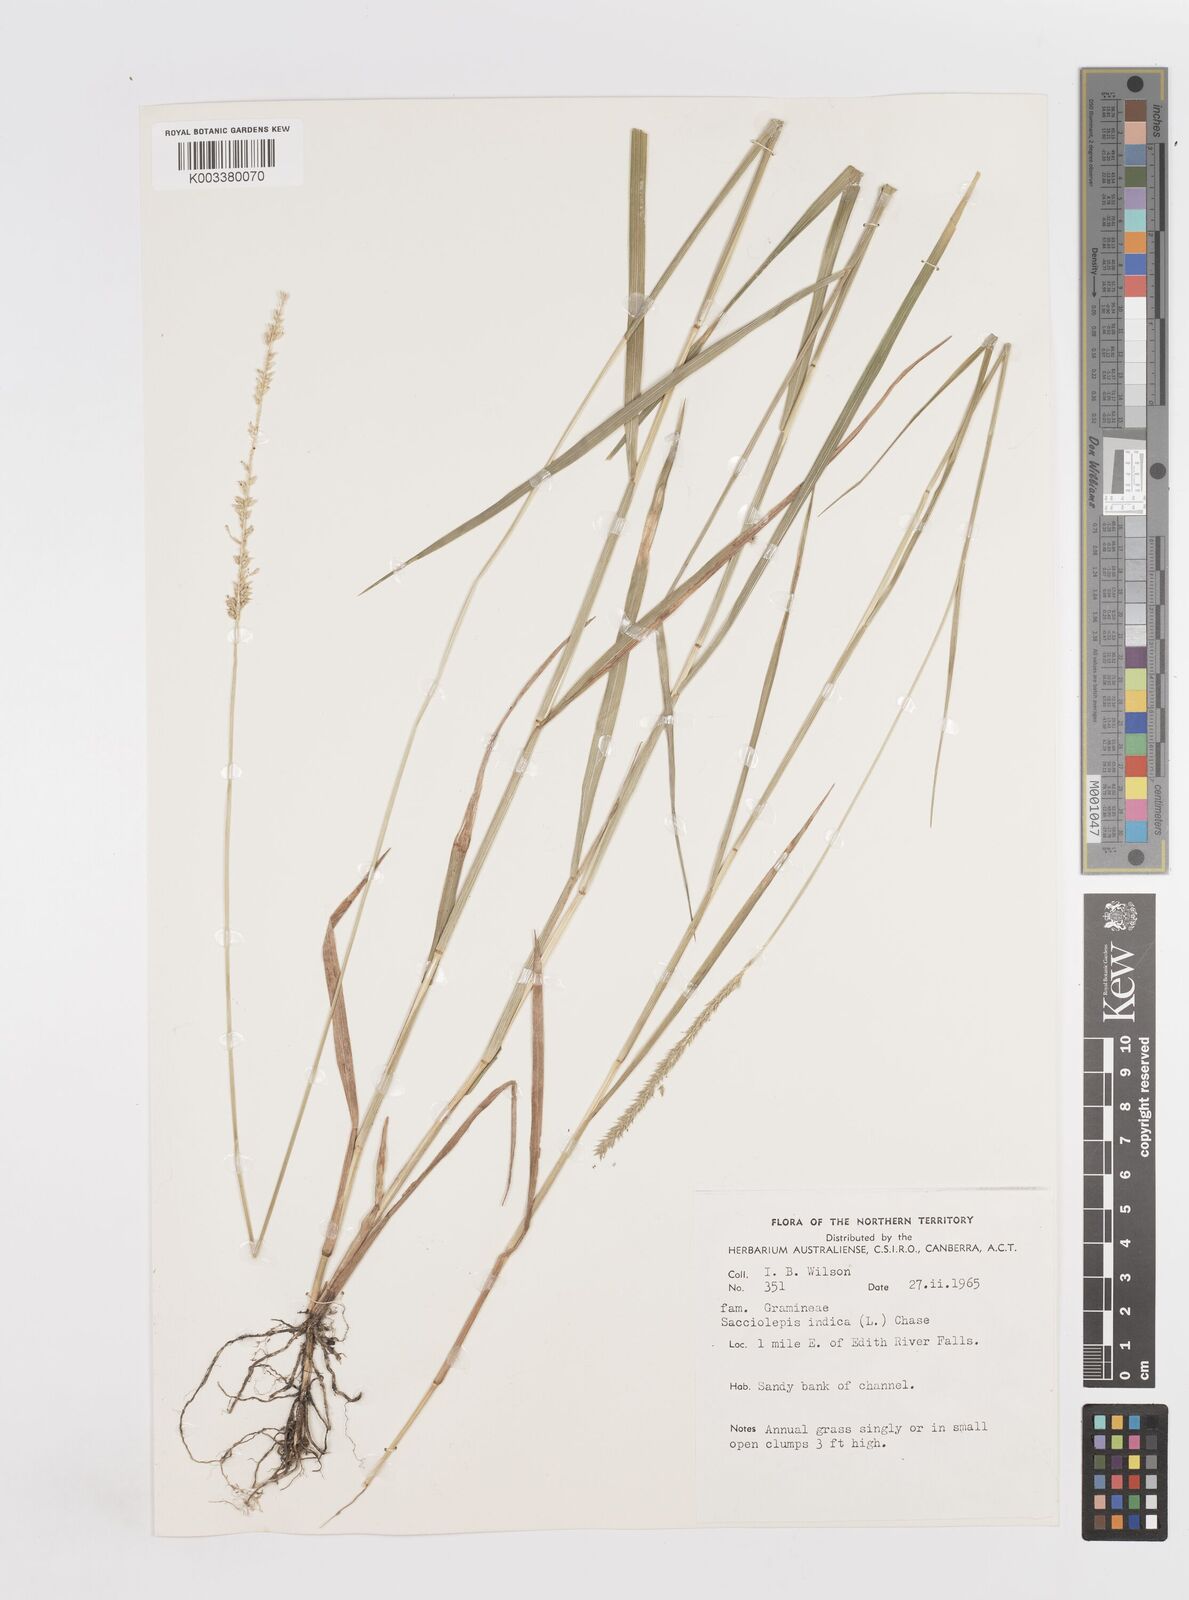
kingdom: Plantae
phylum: Tracheophyta
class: Liliopsida
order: Poales
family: Poaceae
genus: Sacciolepis
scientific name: Sacciolepis indica
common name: Glenwoodgrass
